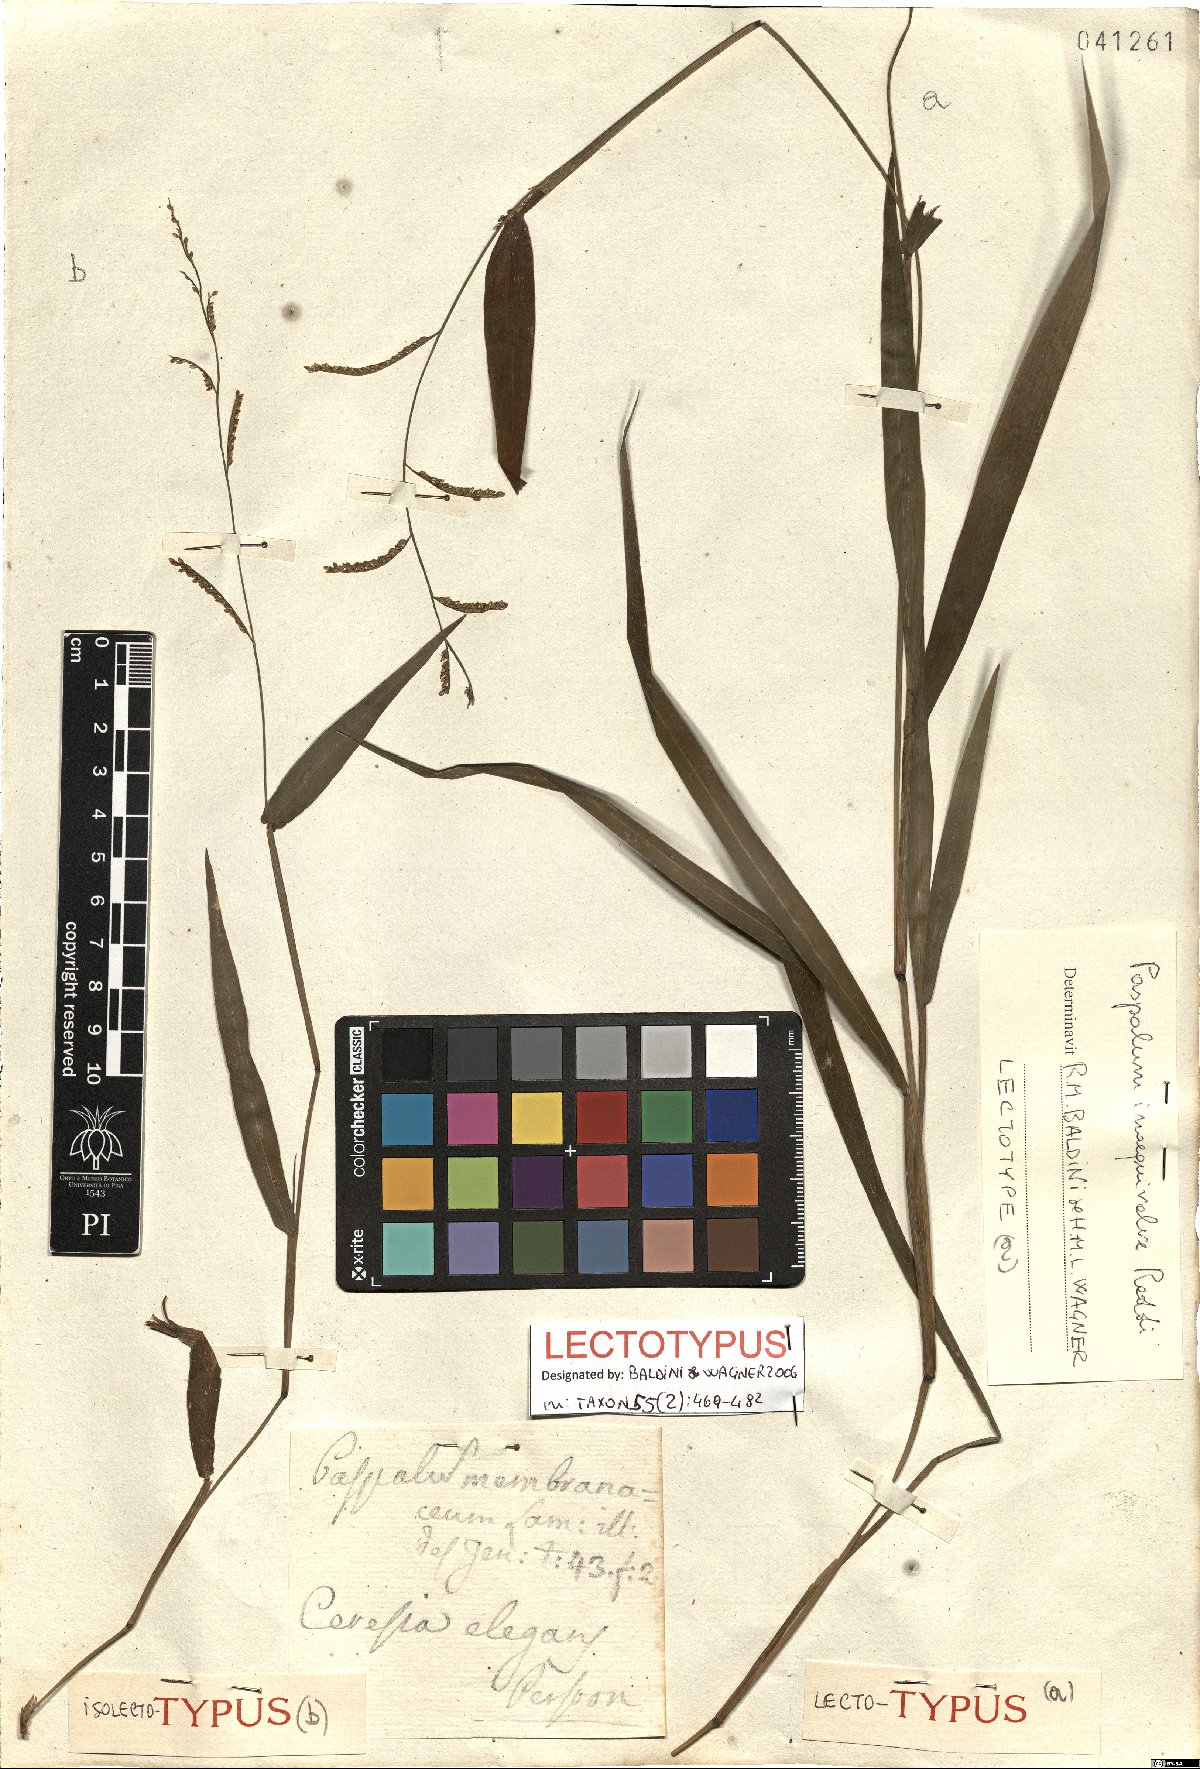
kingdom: Plantae
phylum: Tracheophyta
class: Liliopsida
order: Poales
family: Poaceae
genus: Paspalum
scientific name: Paspalum inaequivalve
